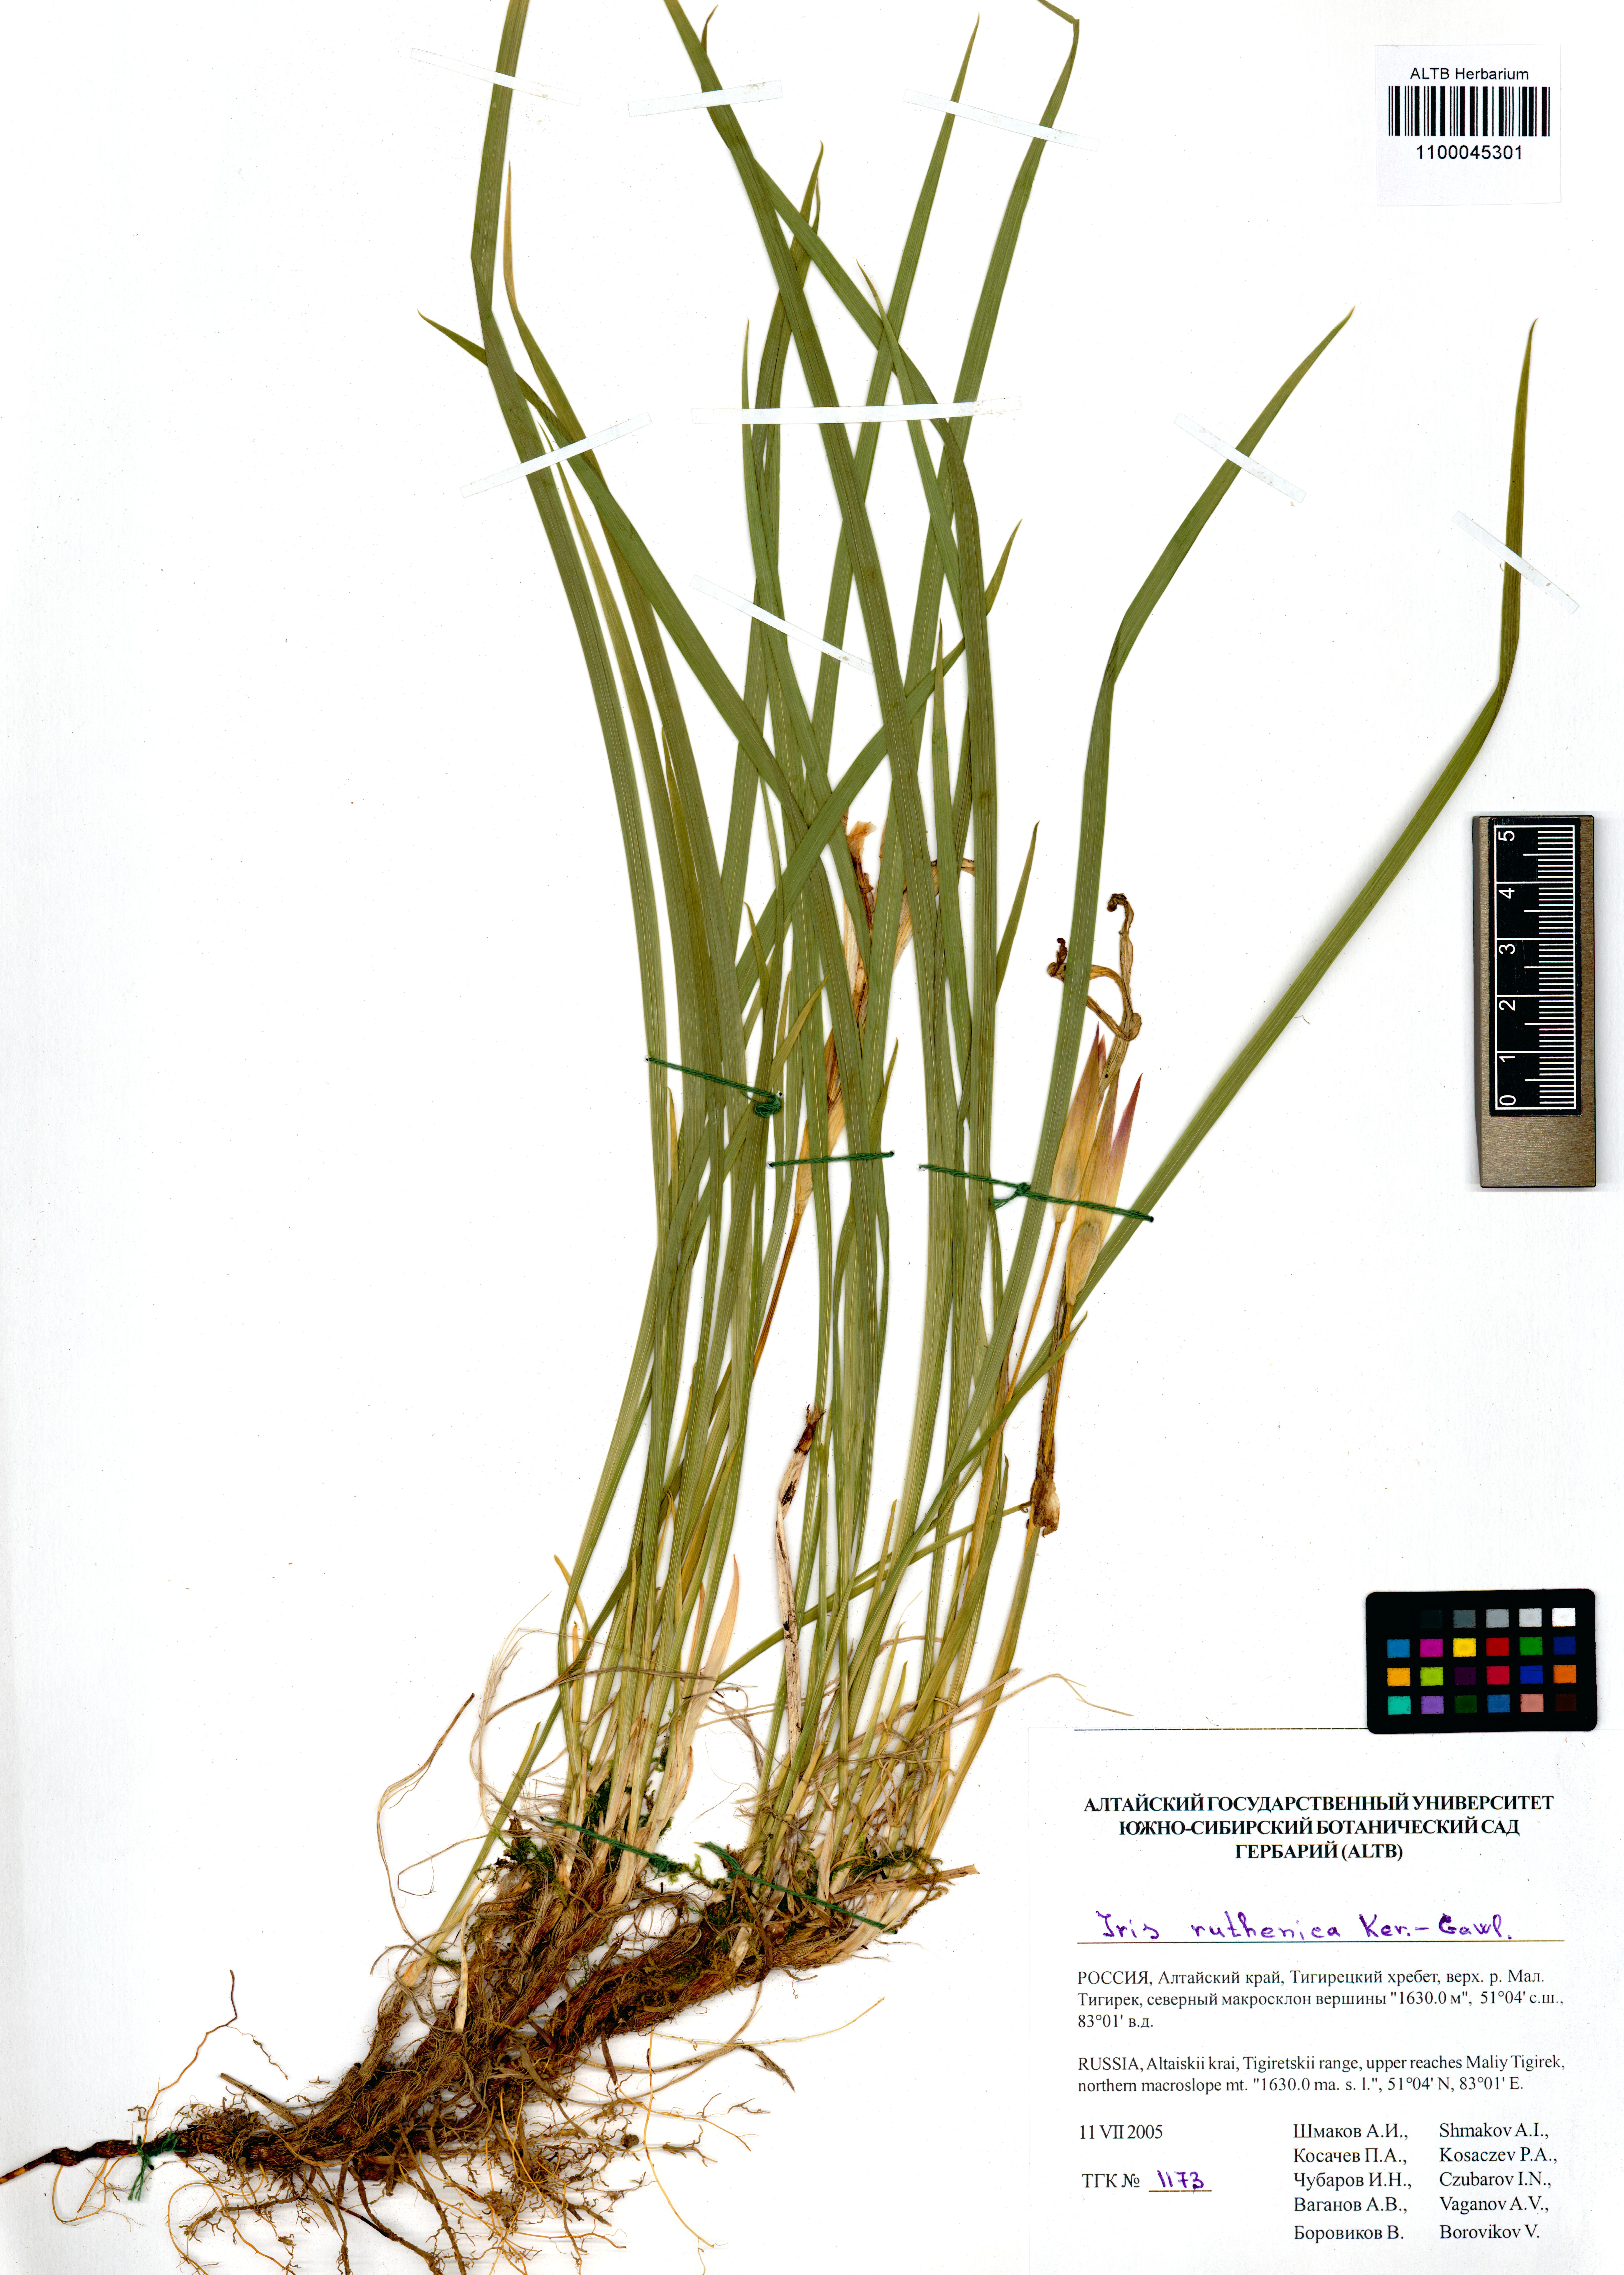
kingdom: Plantae
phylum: Tracheophyta
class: Liliopsida
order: Asparagales
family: Iridaceae
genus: Iris
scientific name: Iris ruthenica
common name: Purple-bract iris
